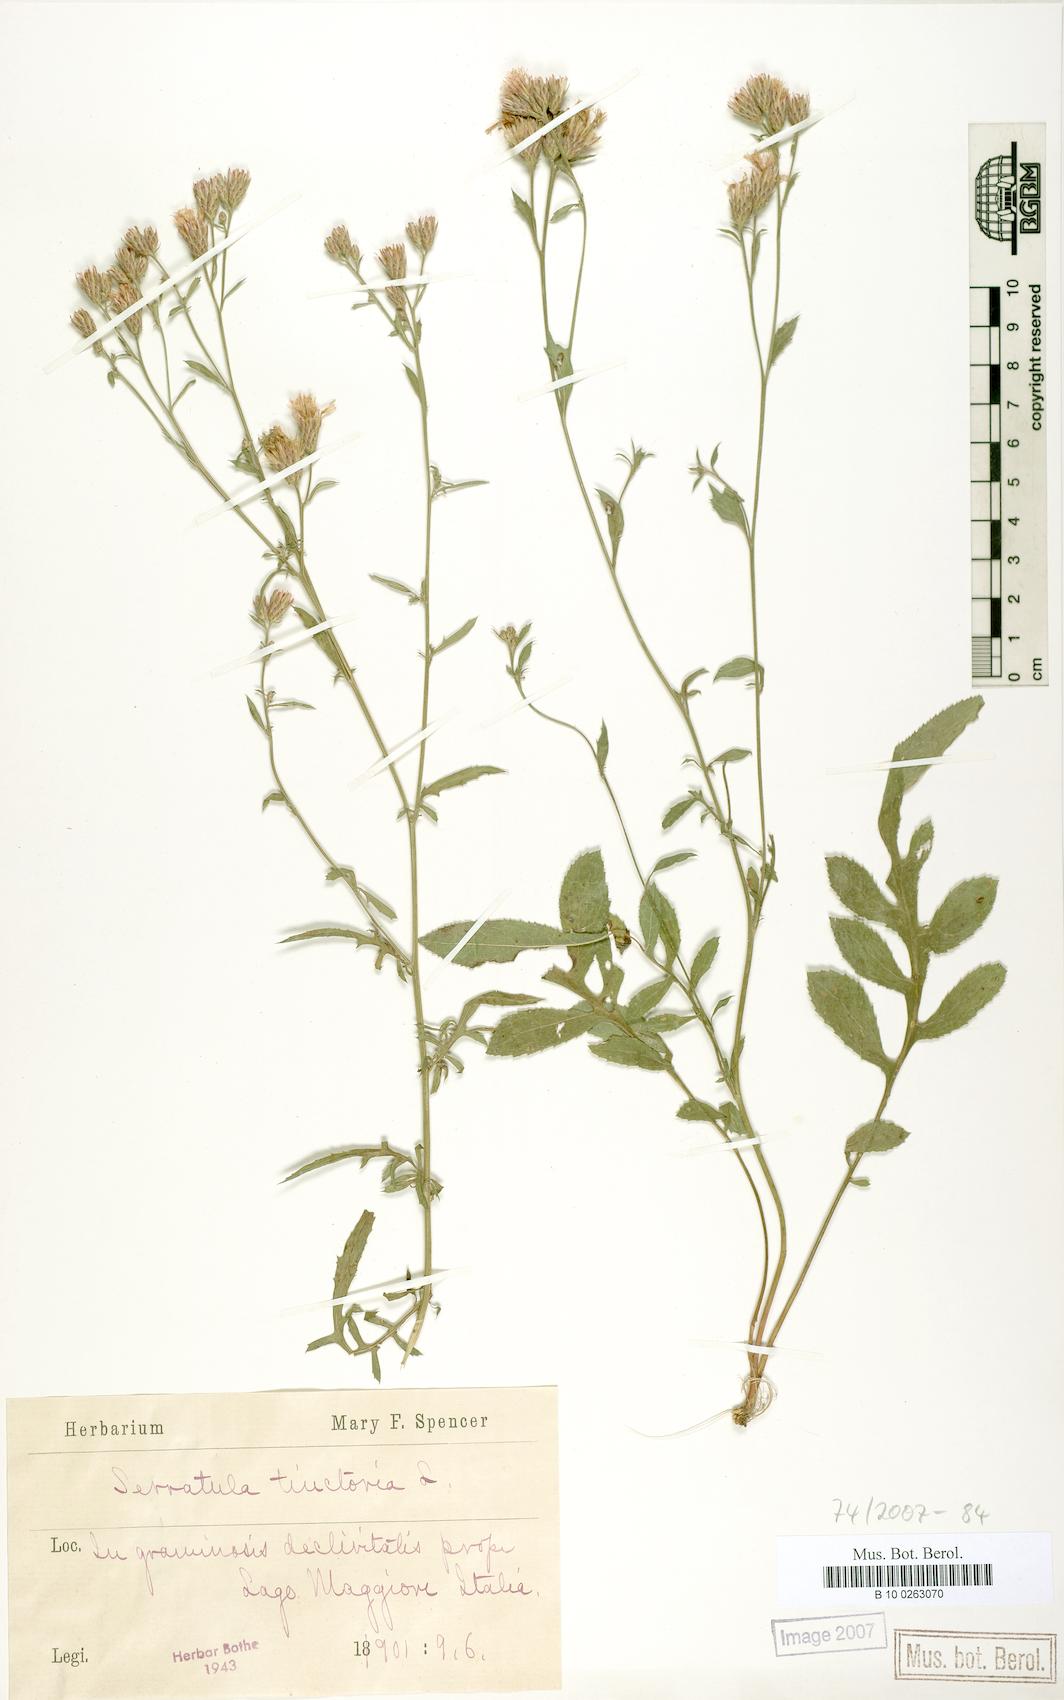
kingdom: Plantae
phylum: Tracheophyta
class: Magnoliopsida
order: Asterales
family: Asteraceae
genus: Serratula
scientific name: Serratula tinctoria
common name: Saw-wort
